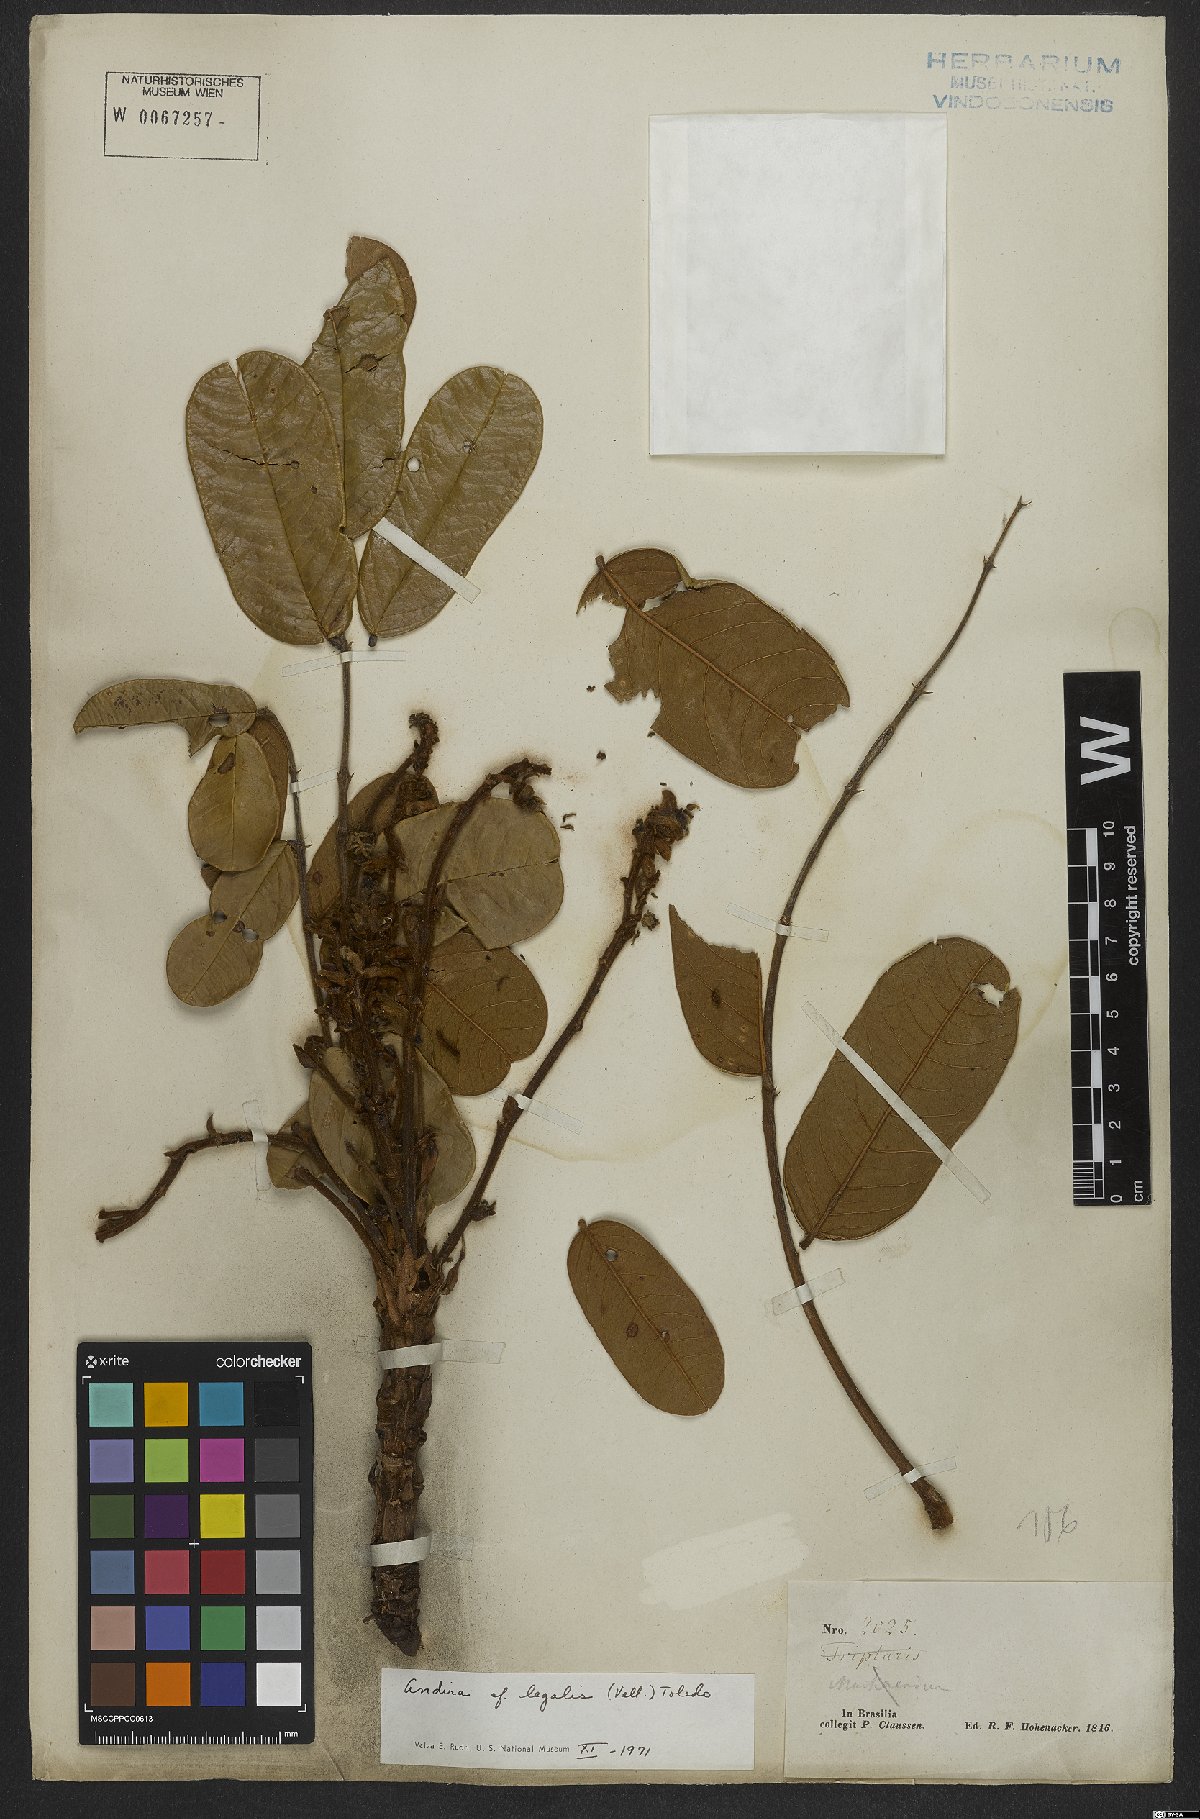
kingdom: Plantae
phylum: Tracheophyta
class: Magnoliopsida
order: Fabales
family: Fabaceae
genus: Andira
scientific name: Andira legalis
